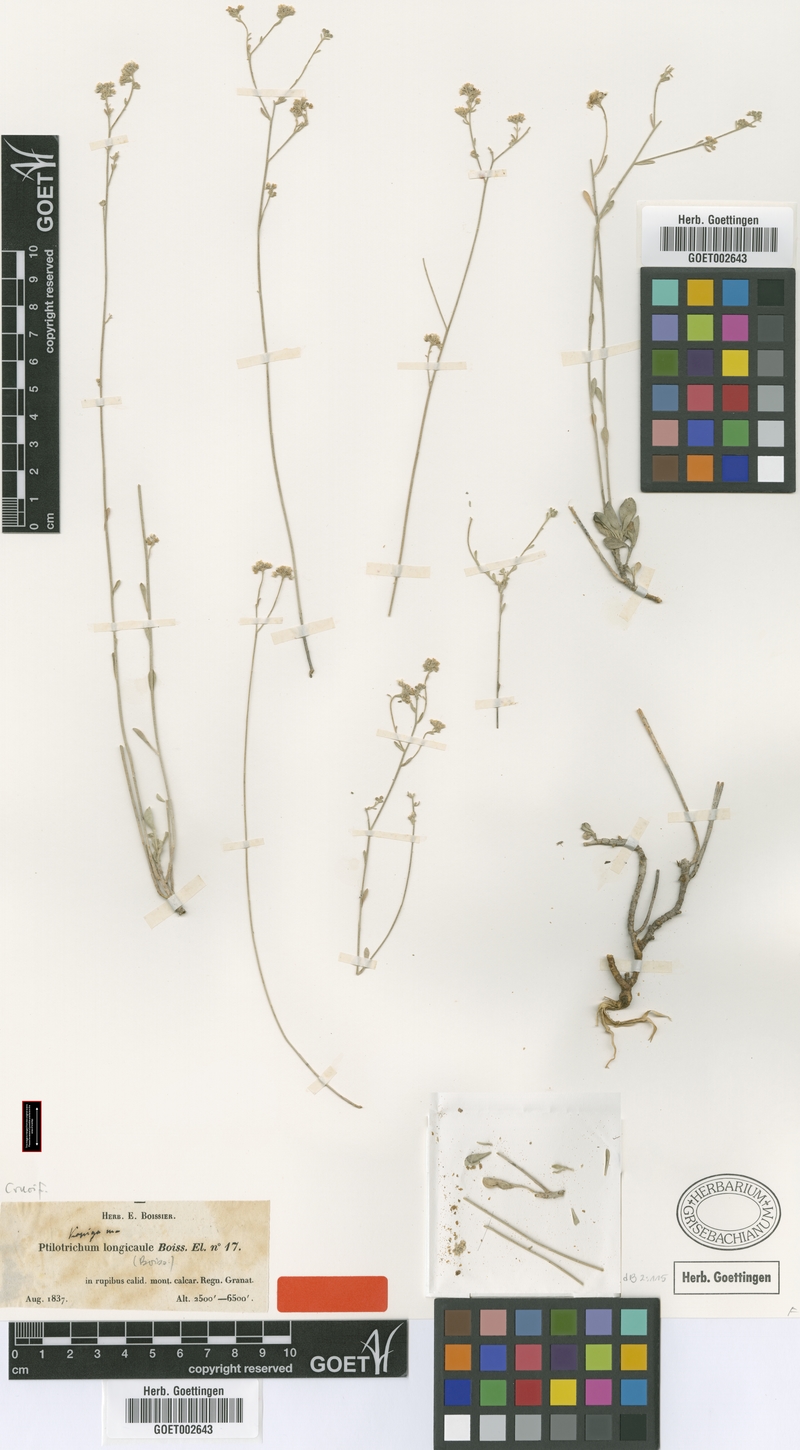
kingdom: Plantae
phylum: Tracheophyta
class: Magnoliopsida
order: Brassicales
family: Brassicaceae
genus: Hormathophylla
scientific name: Hormathophylla longicaulis
